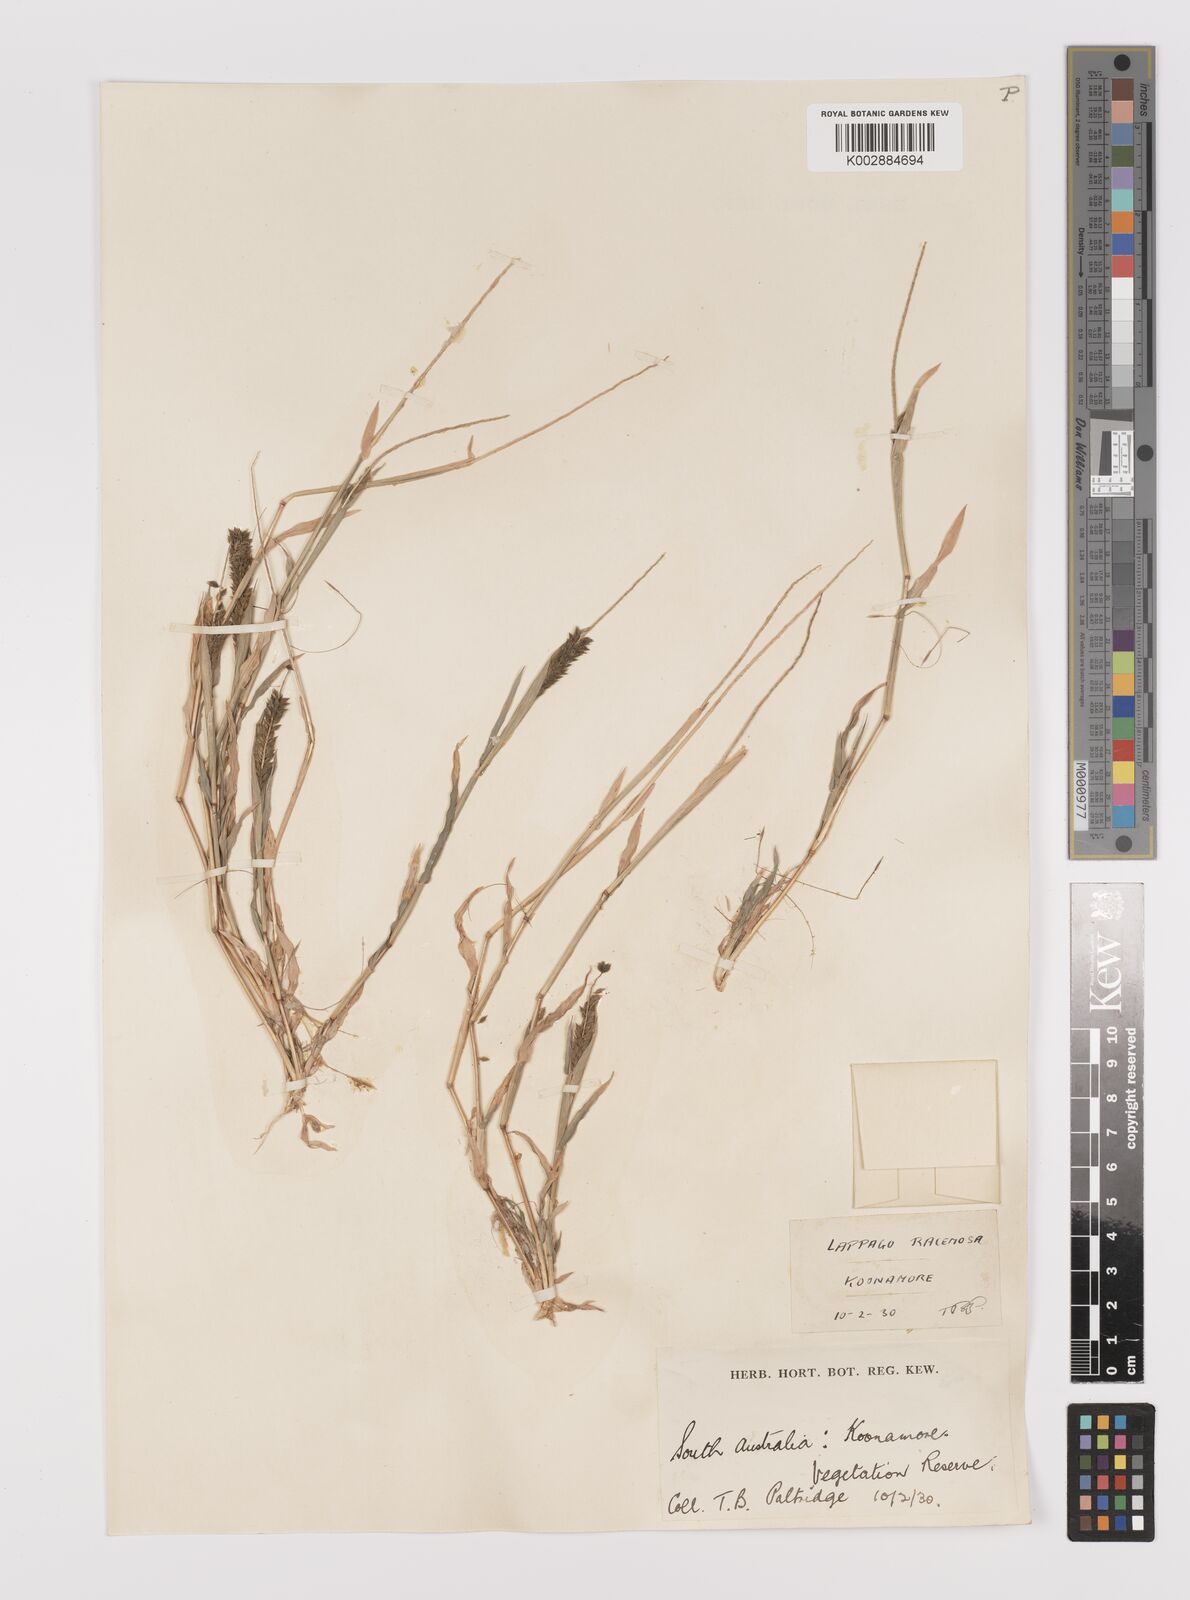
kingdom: Plantae
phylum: Tracheophyta
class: Liliopsida
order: Poales
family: Poaceae
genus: Tragus
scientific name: Tragus australianus
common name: Australian bur-grass
